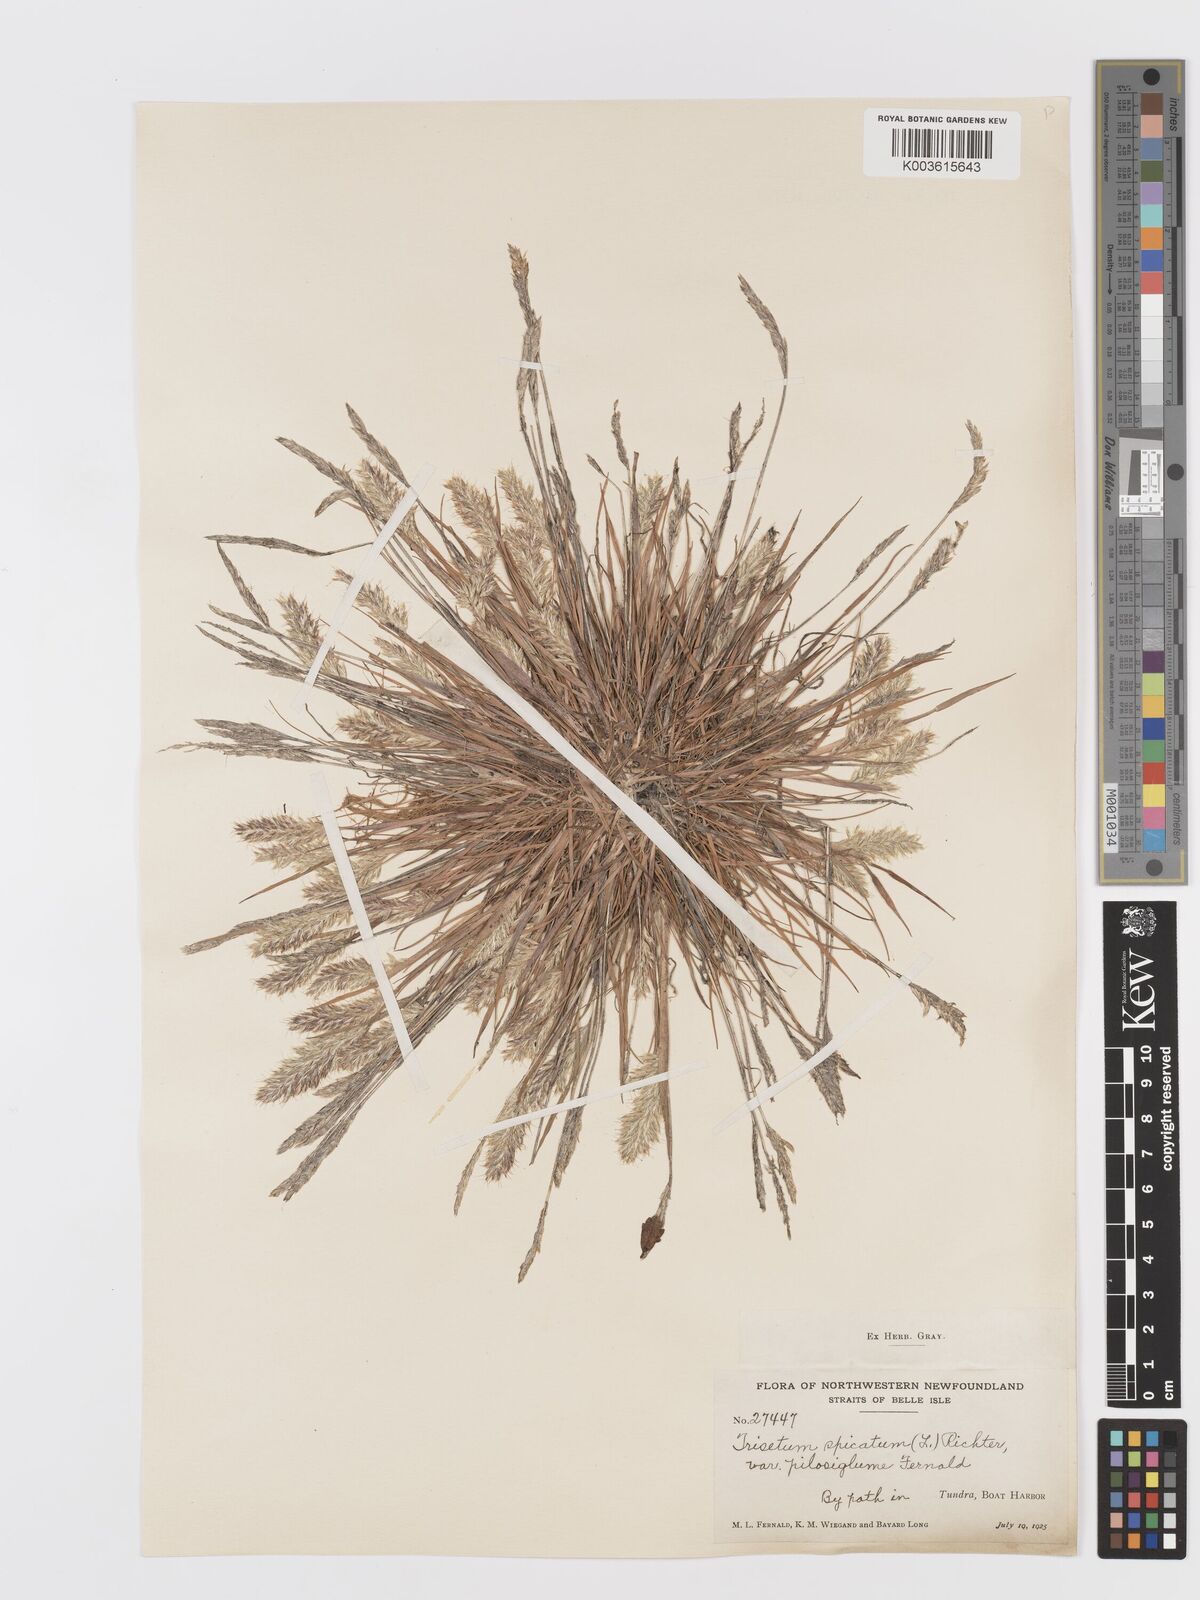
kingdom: Plantae
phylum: Tracheophyta
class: Liliopsida
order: Poales
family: Poaceae
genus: Koeleria
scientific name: Koeleria spicata
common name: Mountain trisetum
